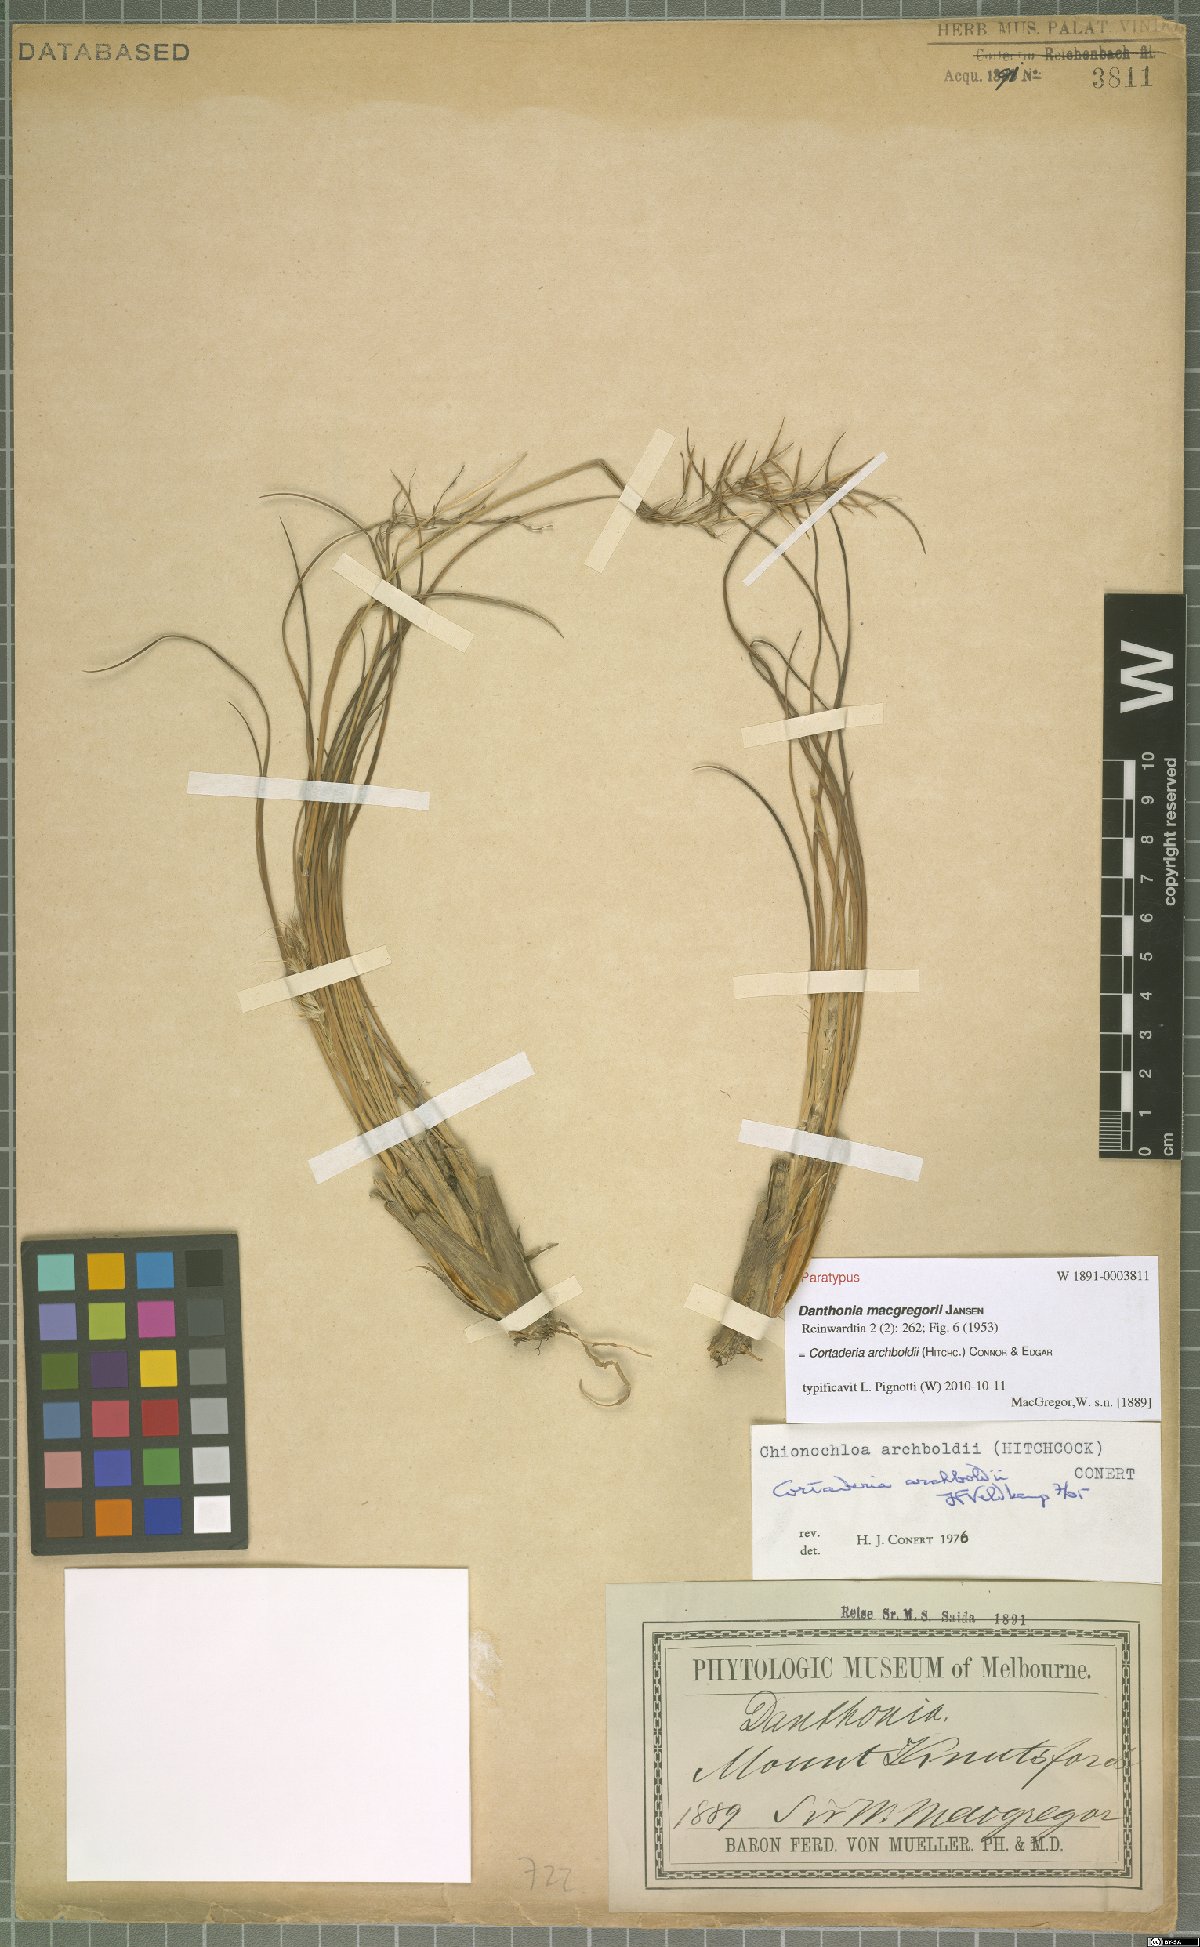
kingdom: Plantae
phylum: Tracheophyta
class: Liliopsida
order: Poales
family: Poaceae
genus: Chimaerochloa
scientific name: Chimaerochloa archboldii
